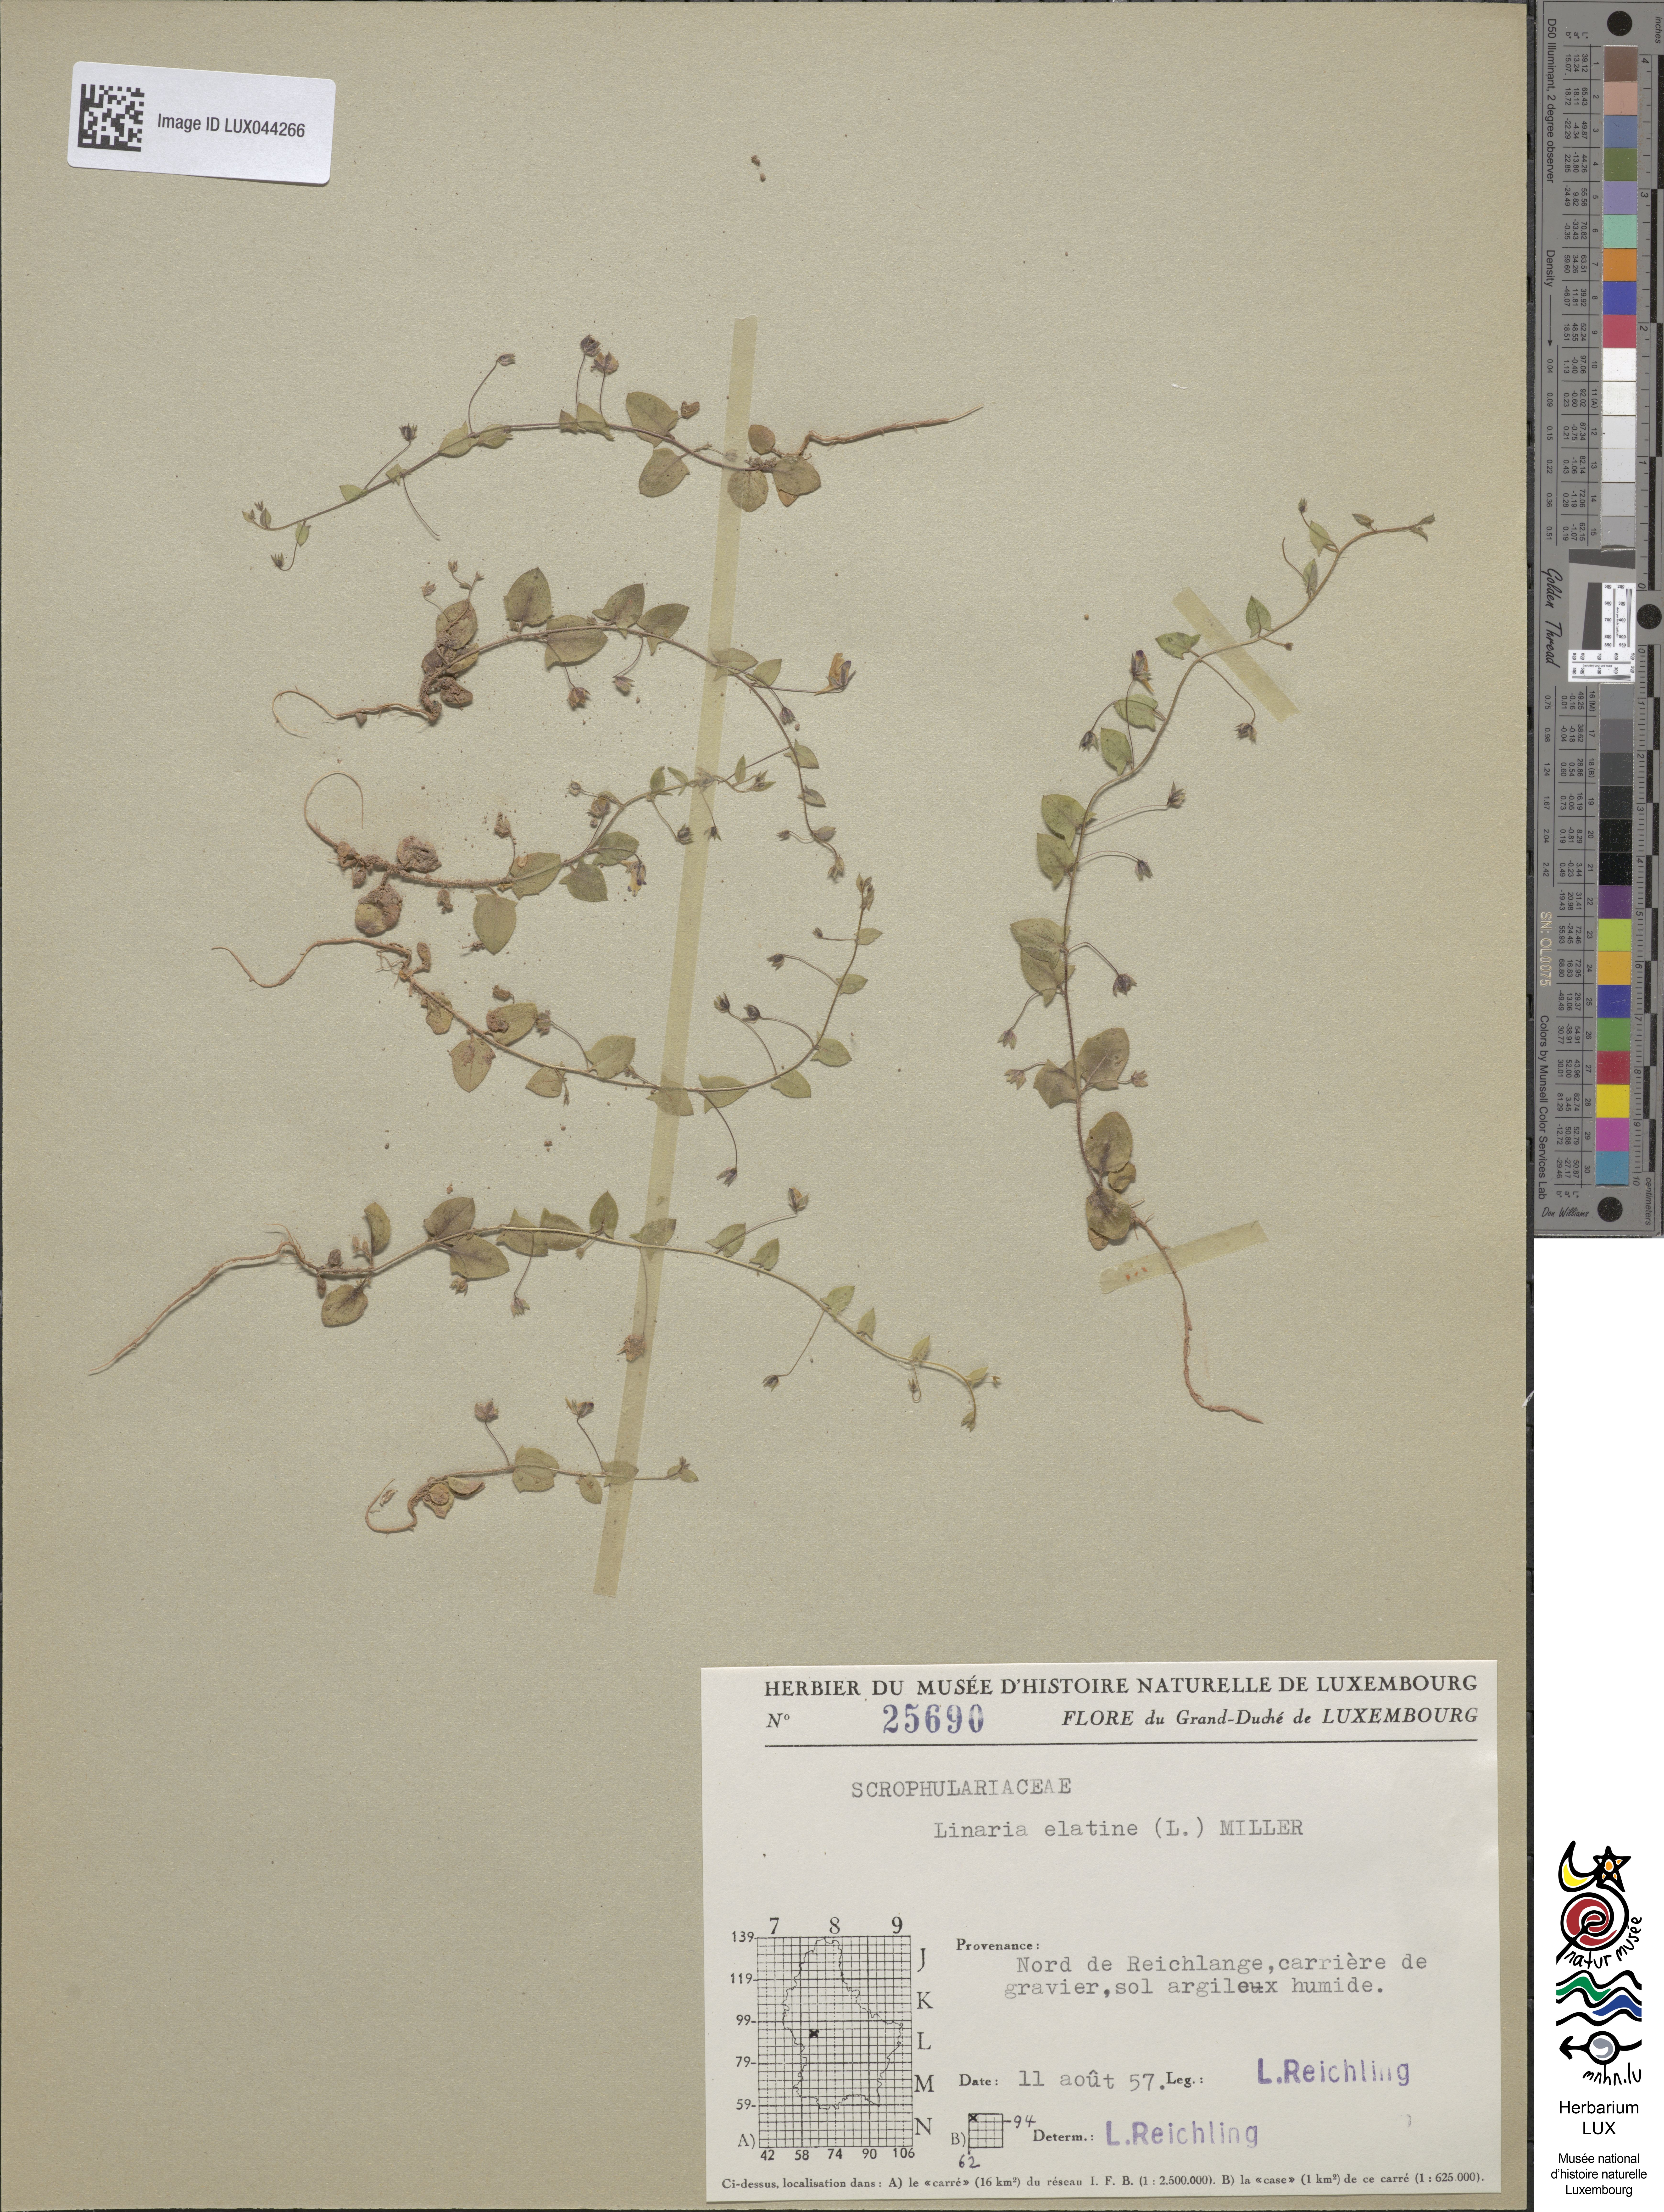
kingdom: Plantae
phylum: Tracheophyta
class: Magnoliopsida
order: Lamiales
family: Plantaginaceae
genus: Kickxia
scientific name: Kickxia elatine
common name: Sharp-leaved fluellen
